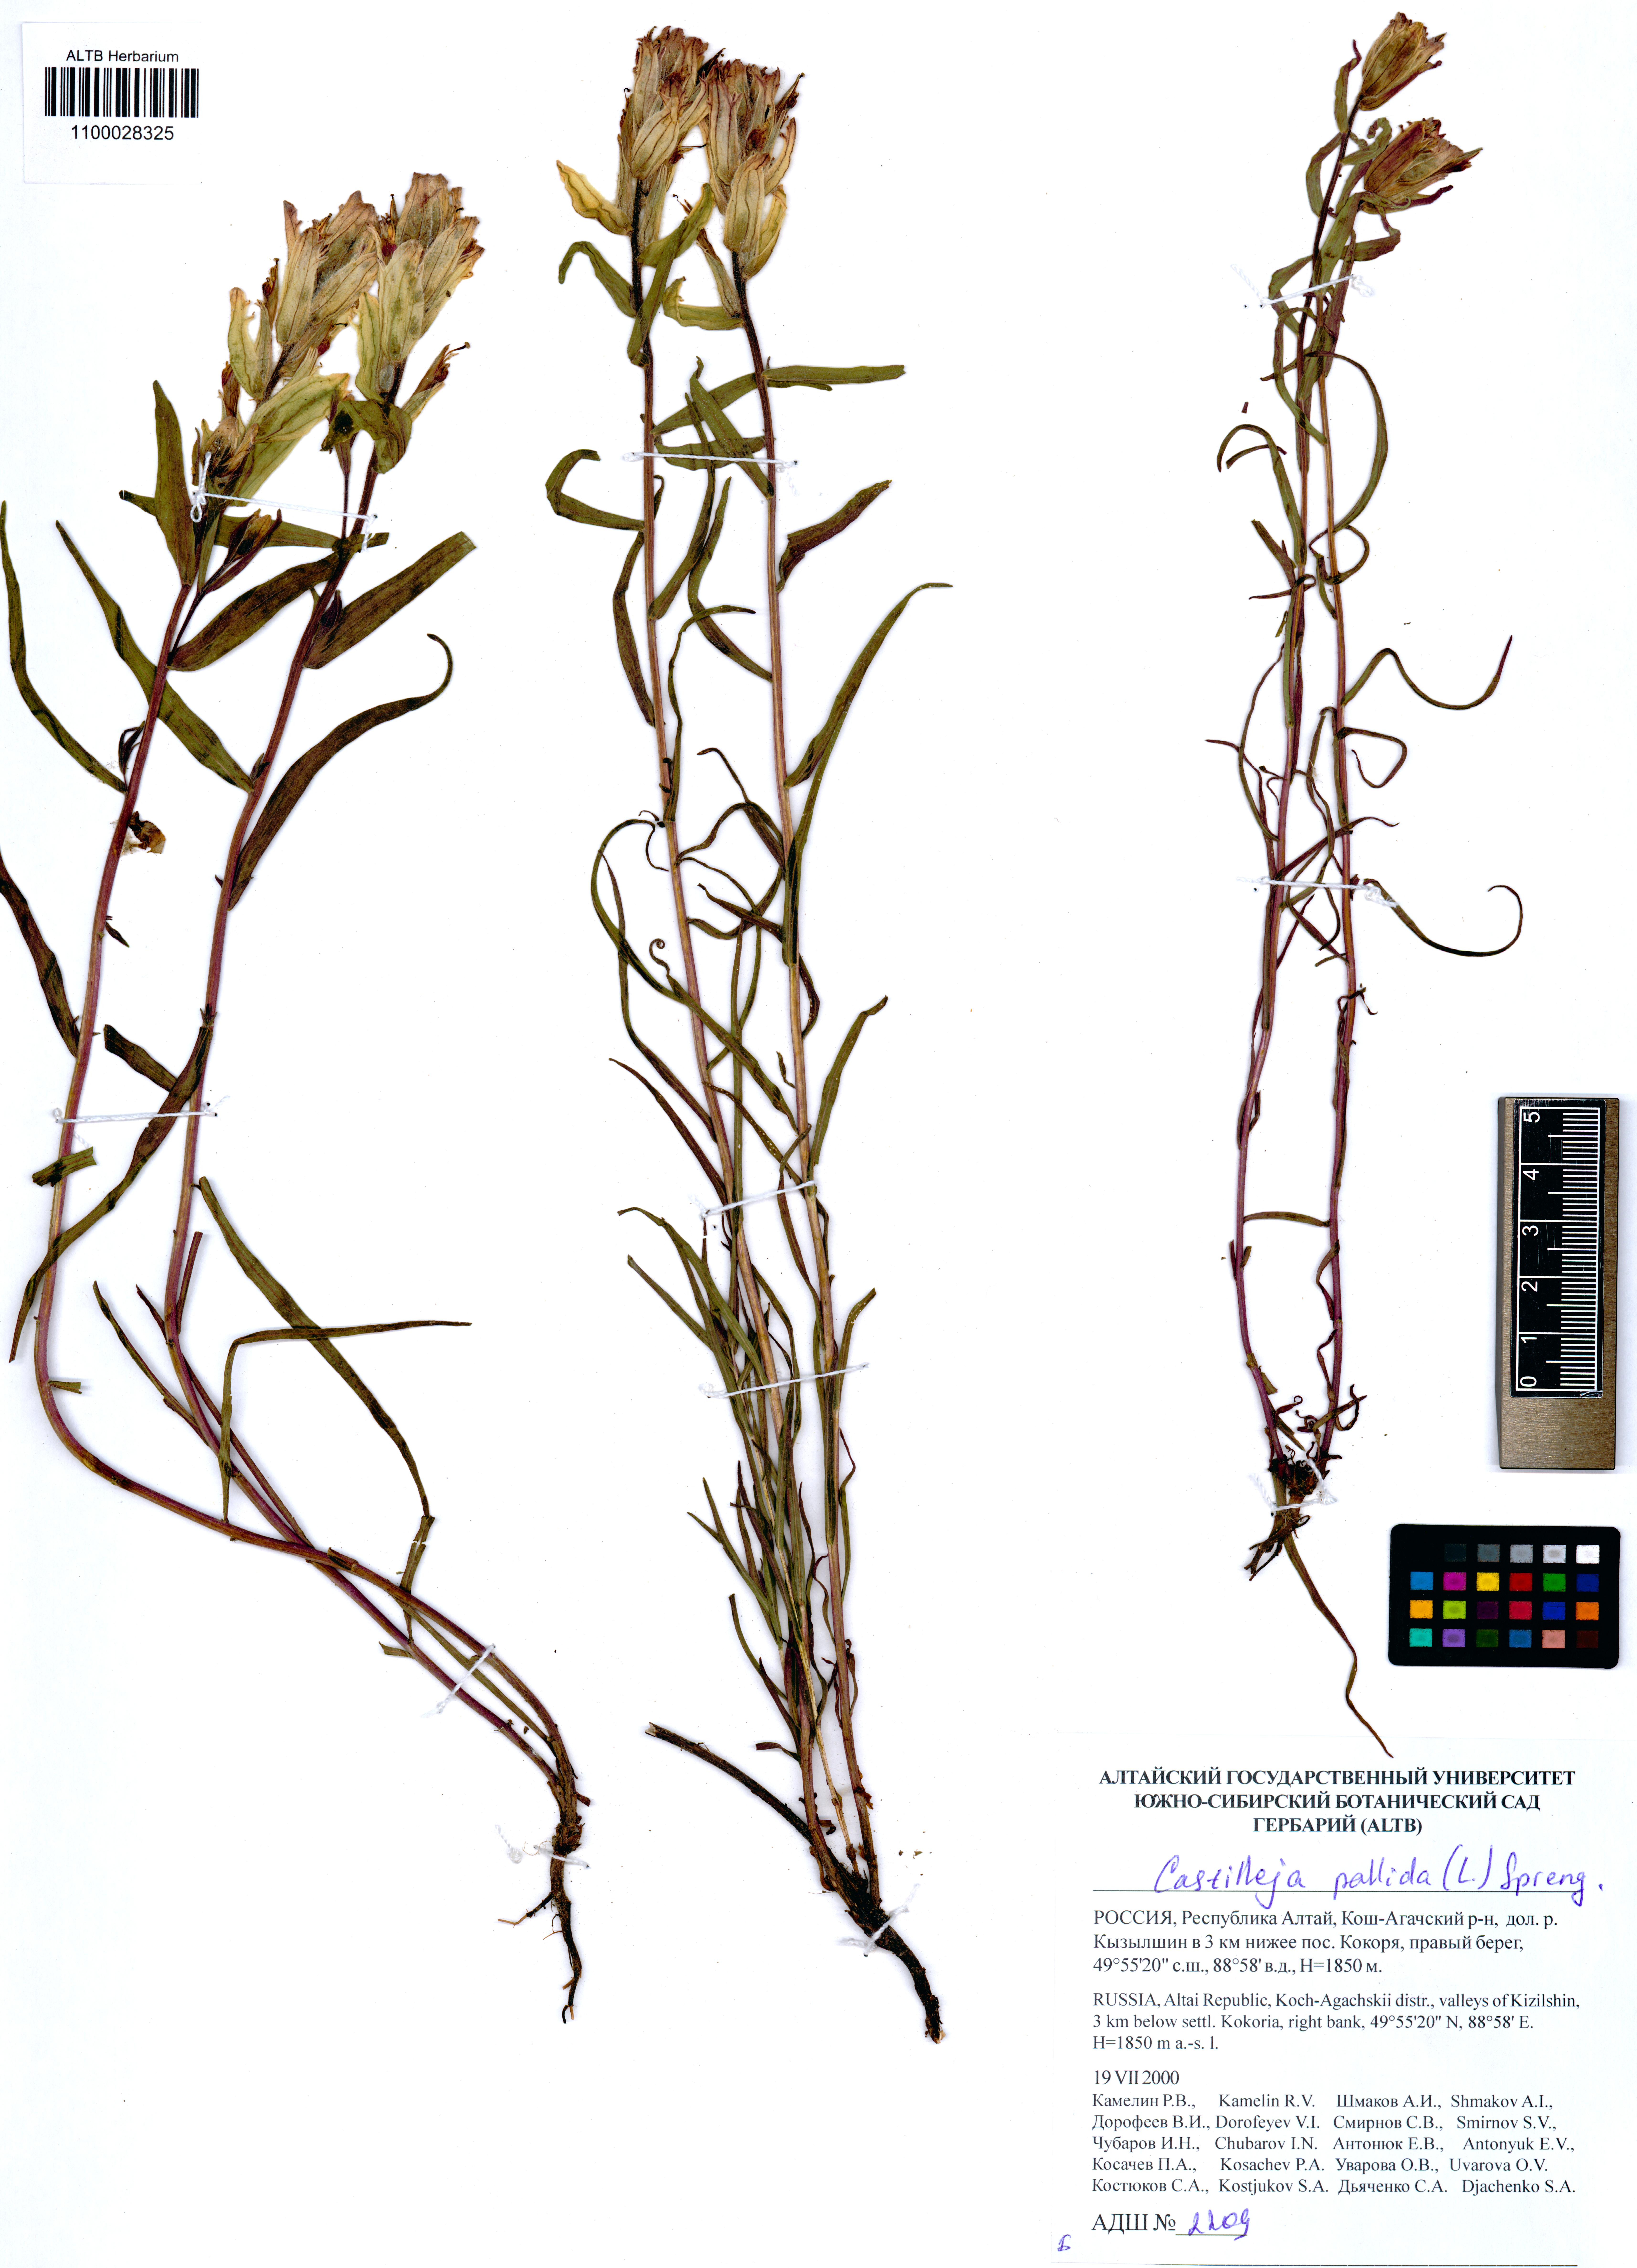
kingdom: Plantae
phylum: Tracheophyta
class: Magnoliopsida
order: Lamiales
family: Orobanchaceae
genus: Castilleja
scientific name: Castilleja pallida
